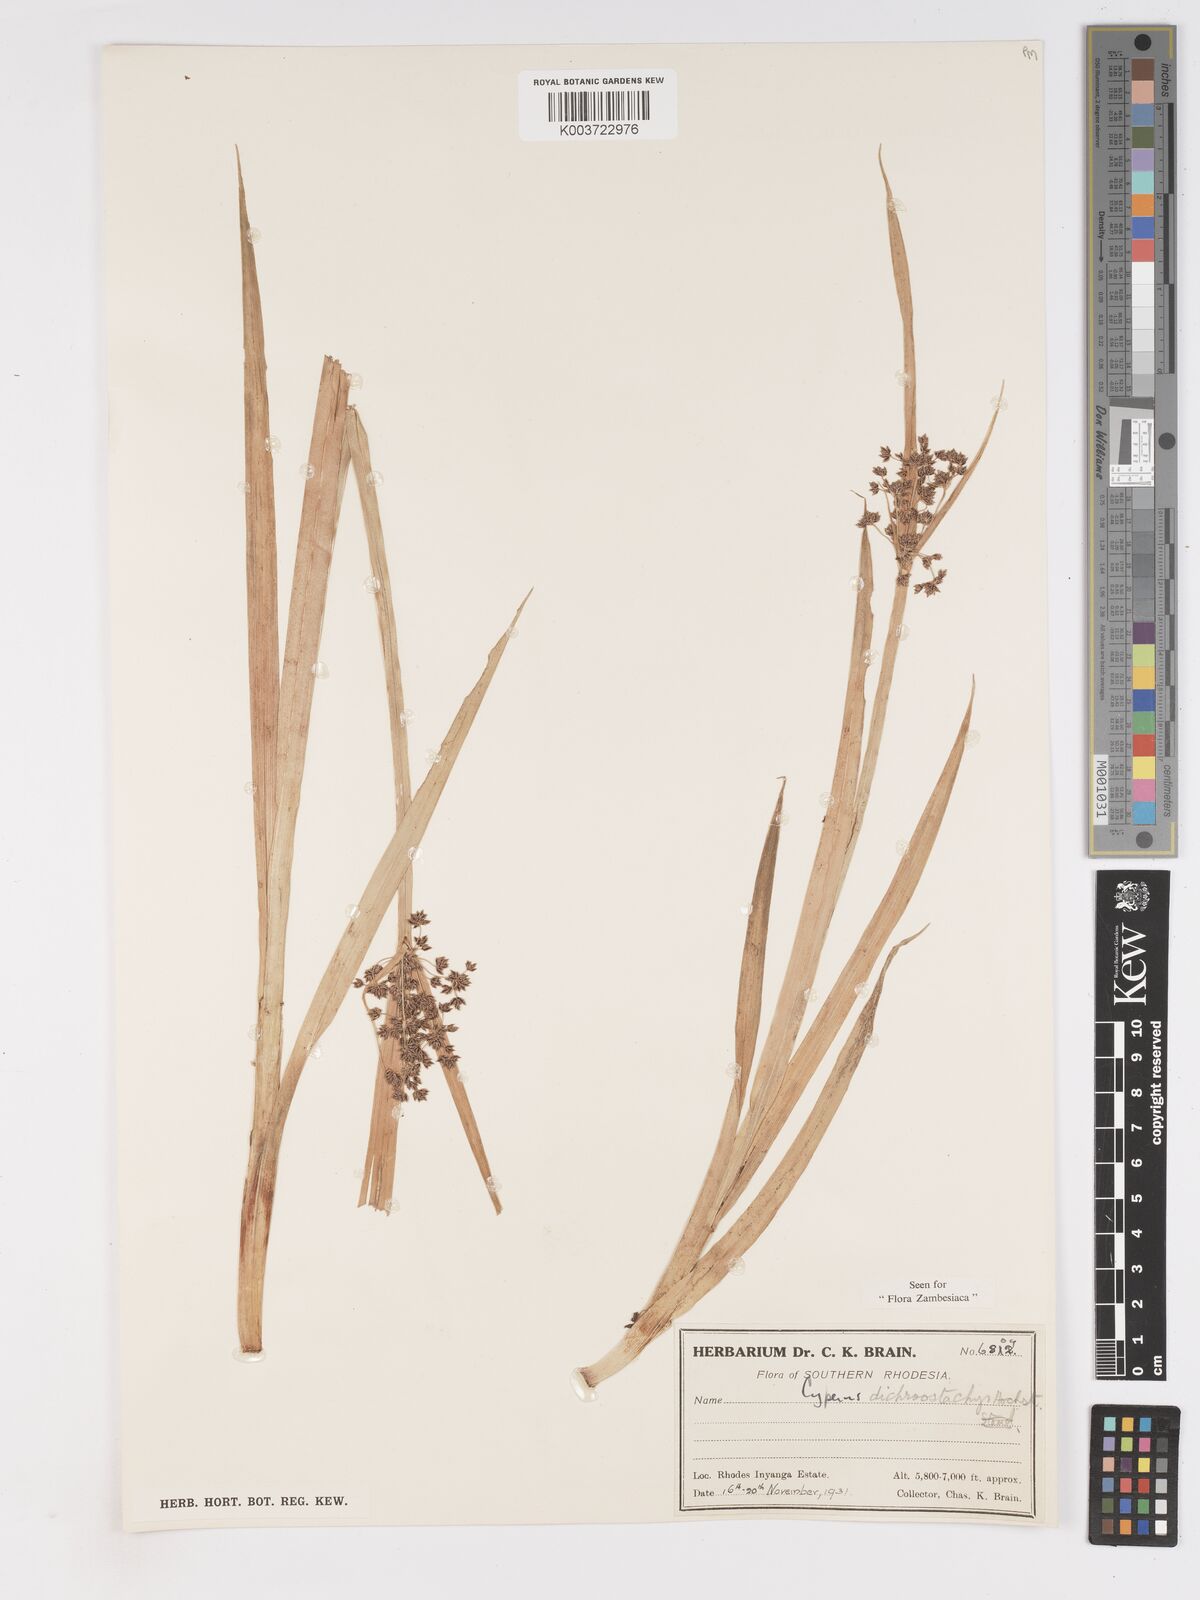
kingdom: Plantae
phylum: Tracheophyta
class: Liliopsida
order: Poales
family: Cyperaceae
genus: Cyperus
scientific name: Cyperus dichrostachyus
